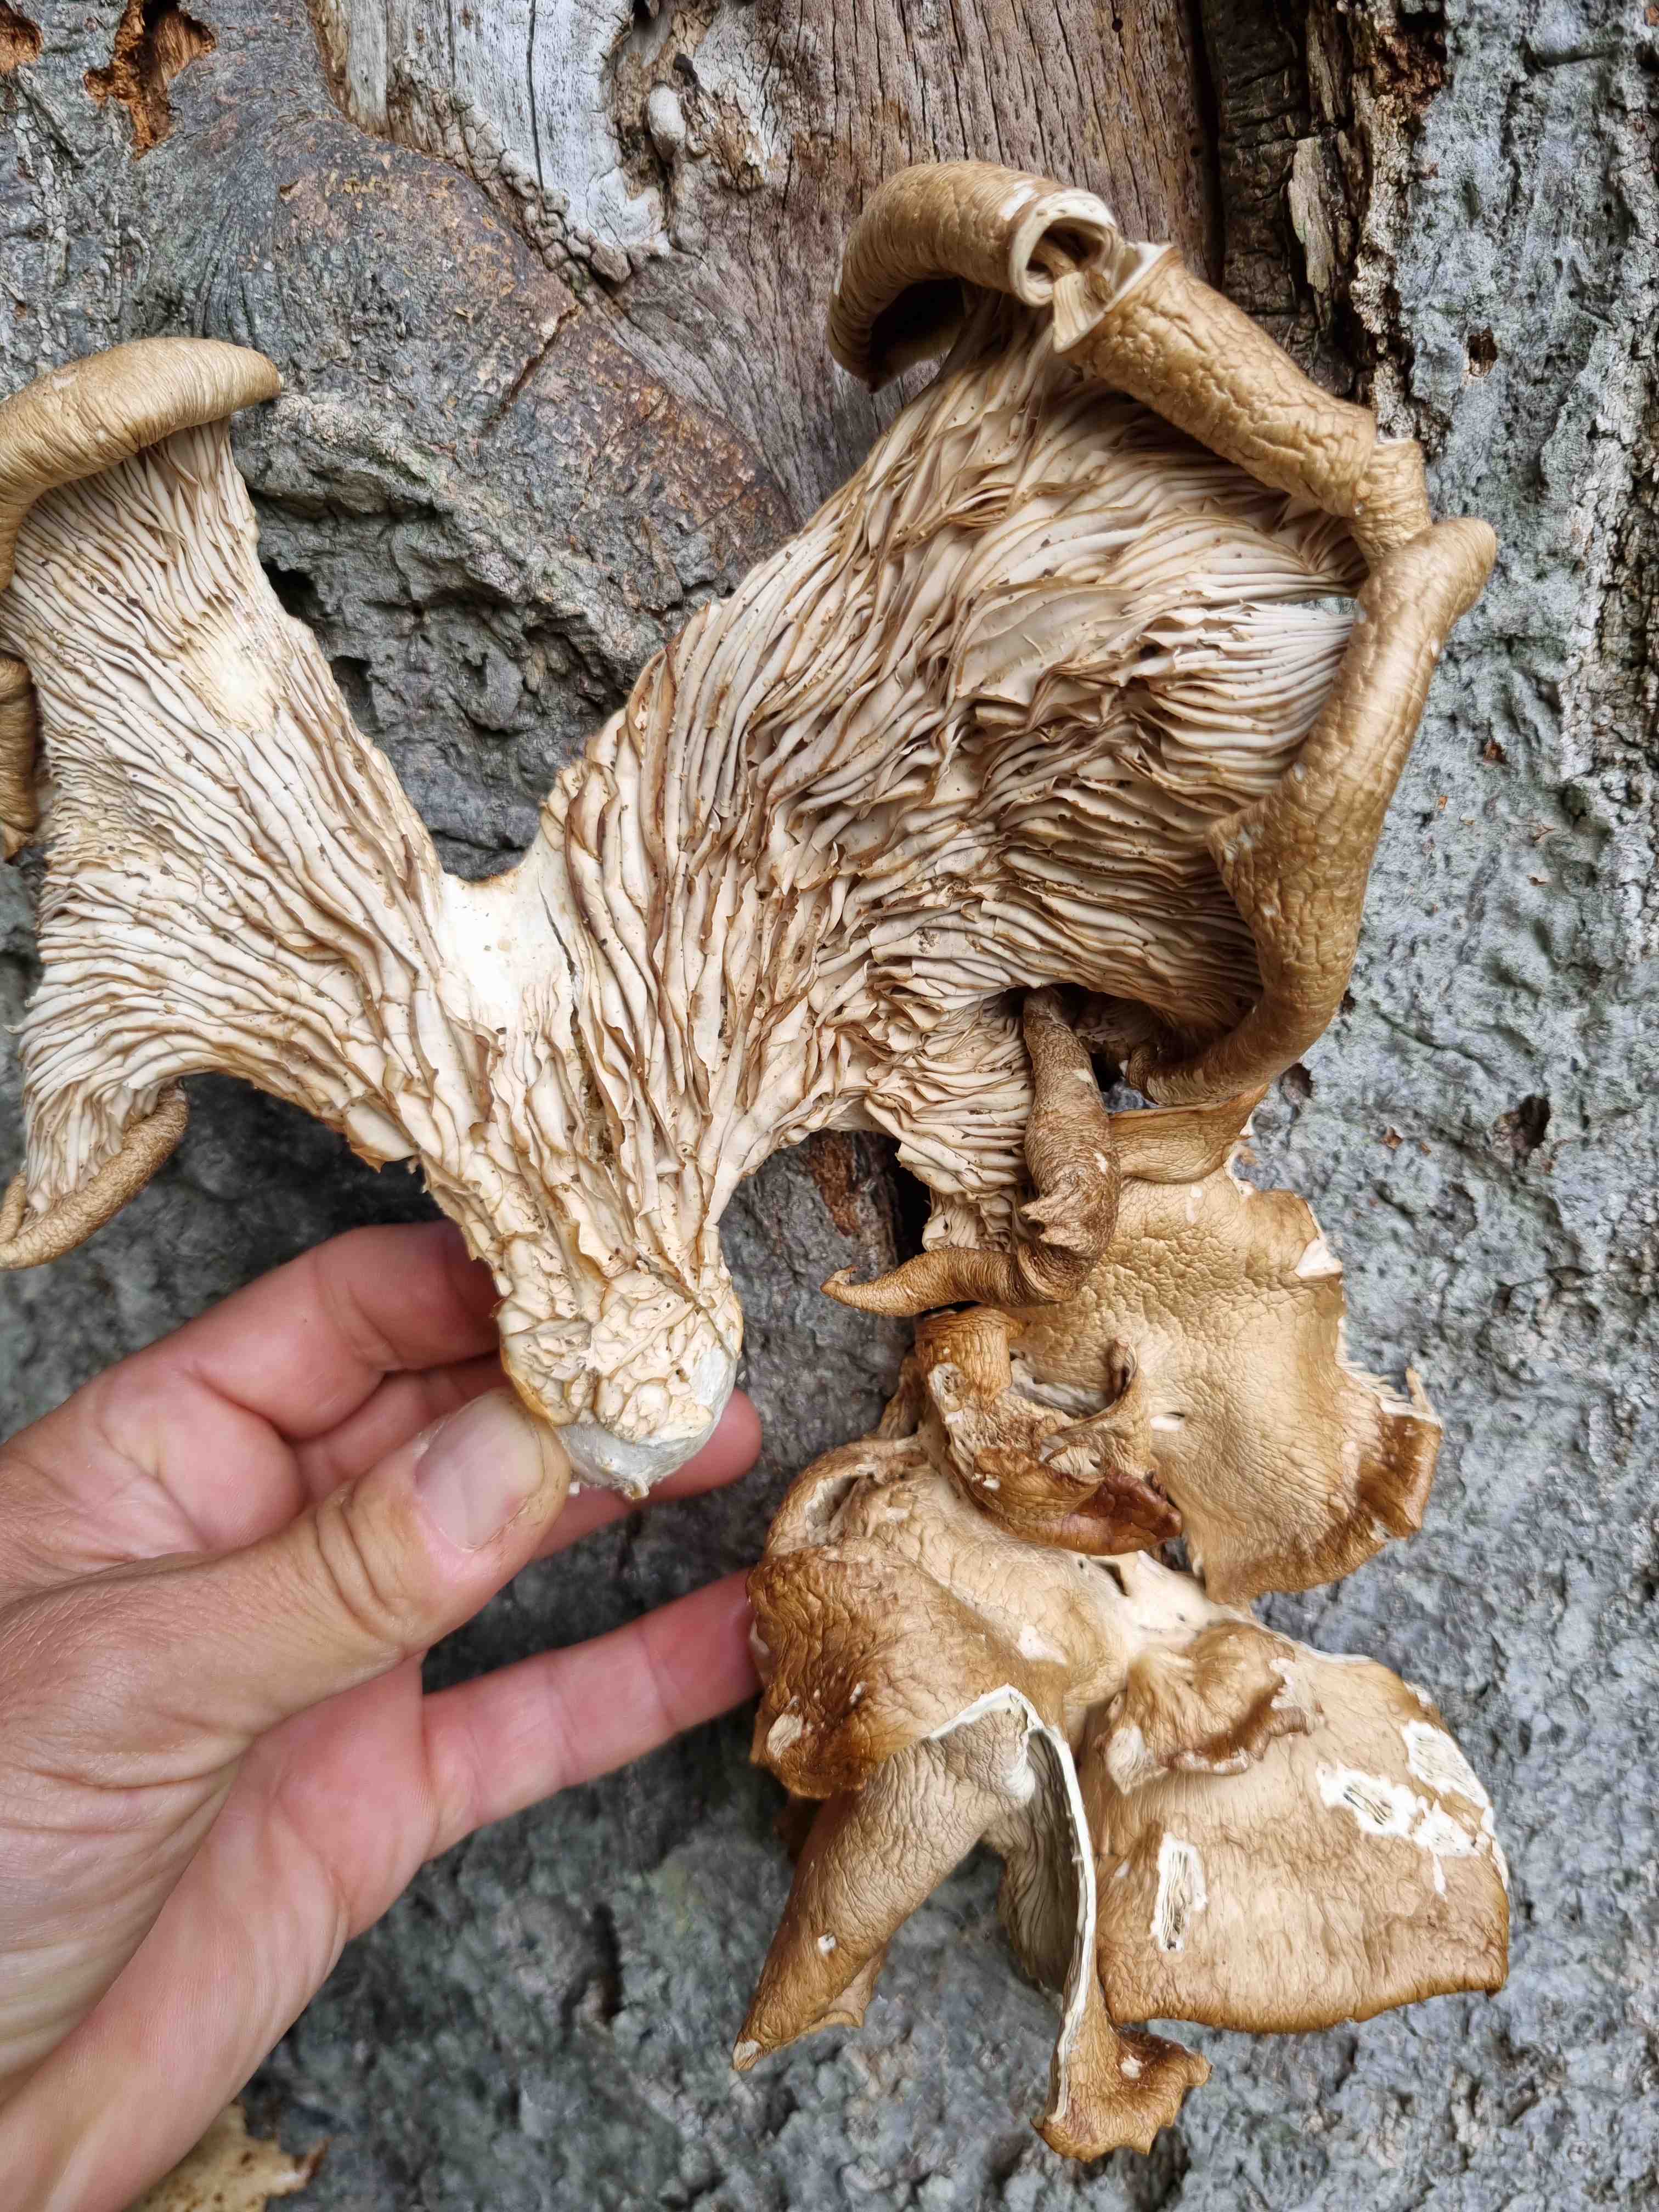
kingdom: Fungi
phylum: Basidiomycota
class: Agaricomycetes
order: Agaricales
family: Pleurotaceae
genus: Pleurotus
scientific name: Pleurotus pulmonarius
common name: sommer-østershat
